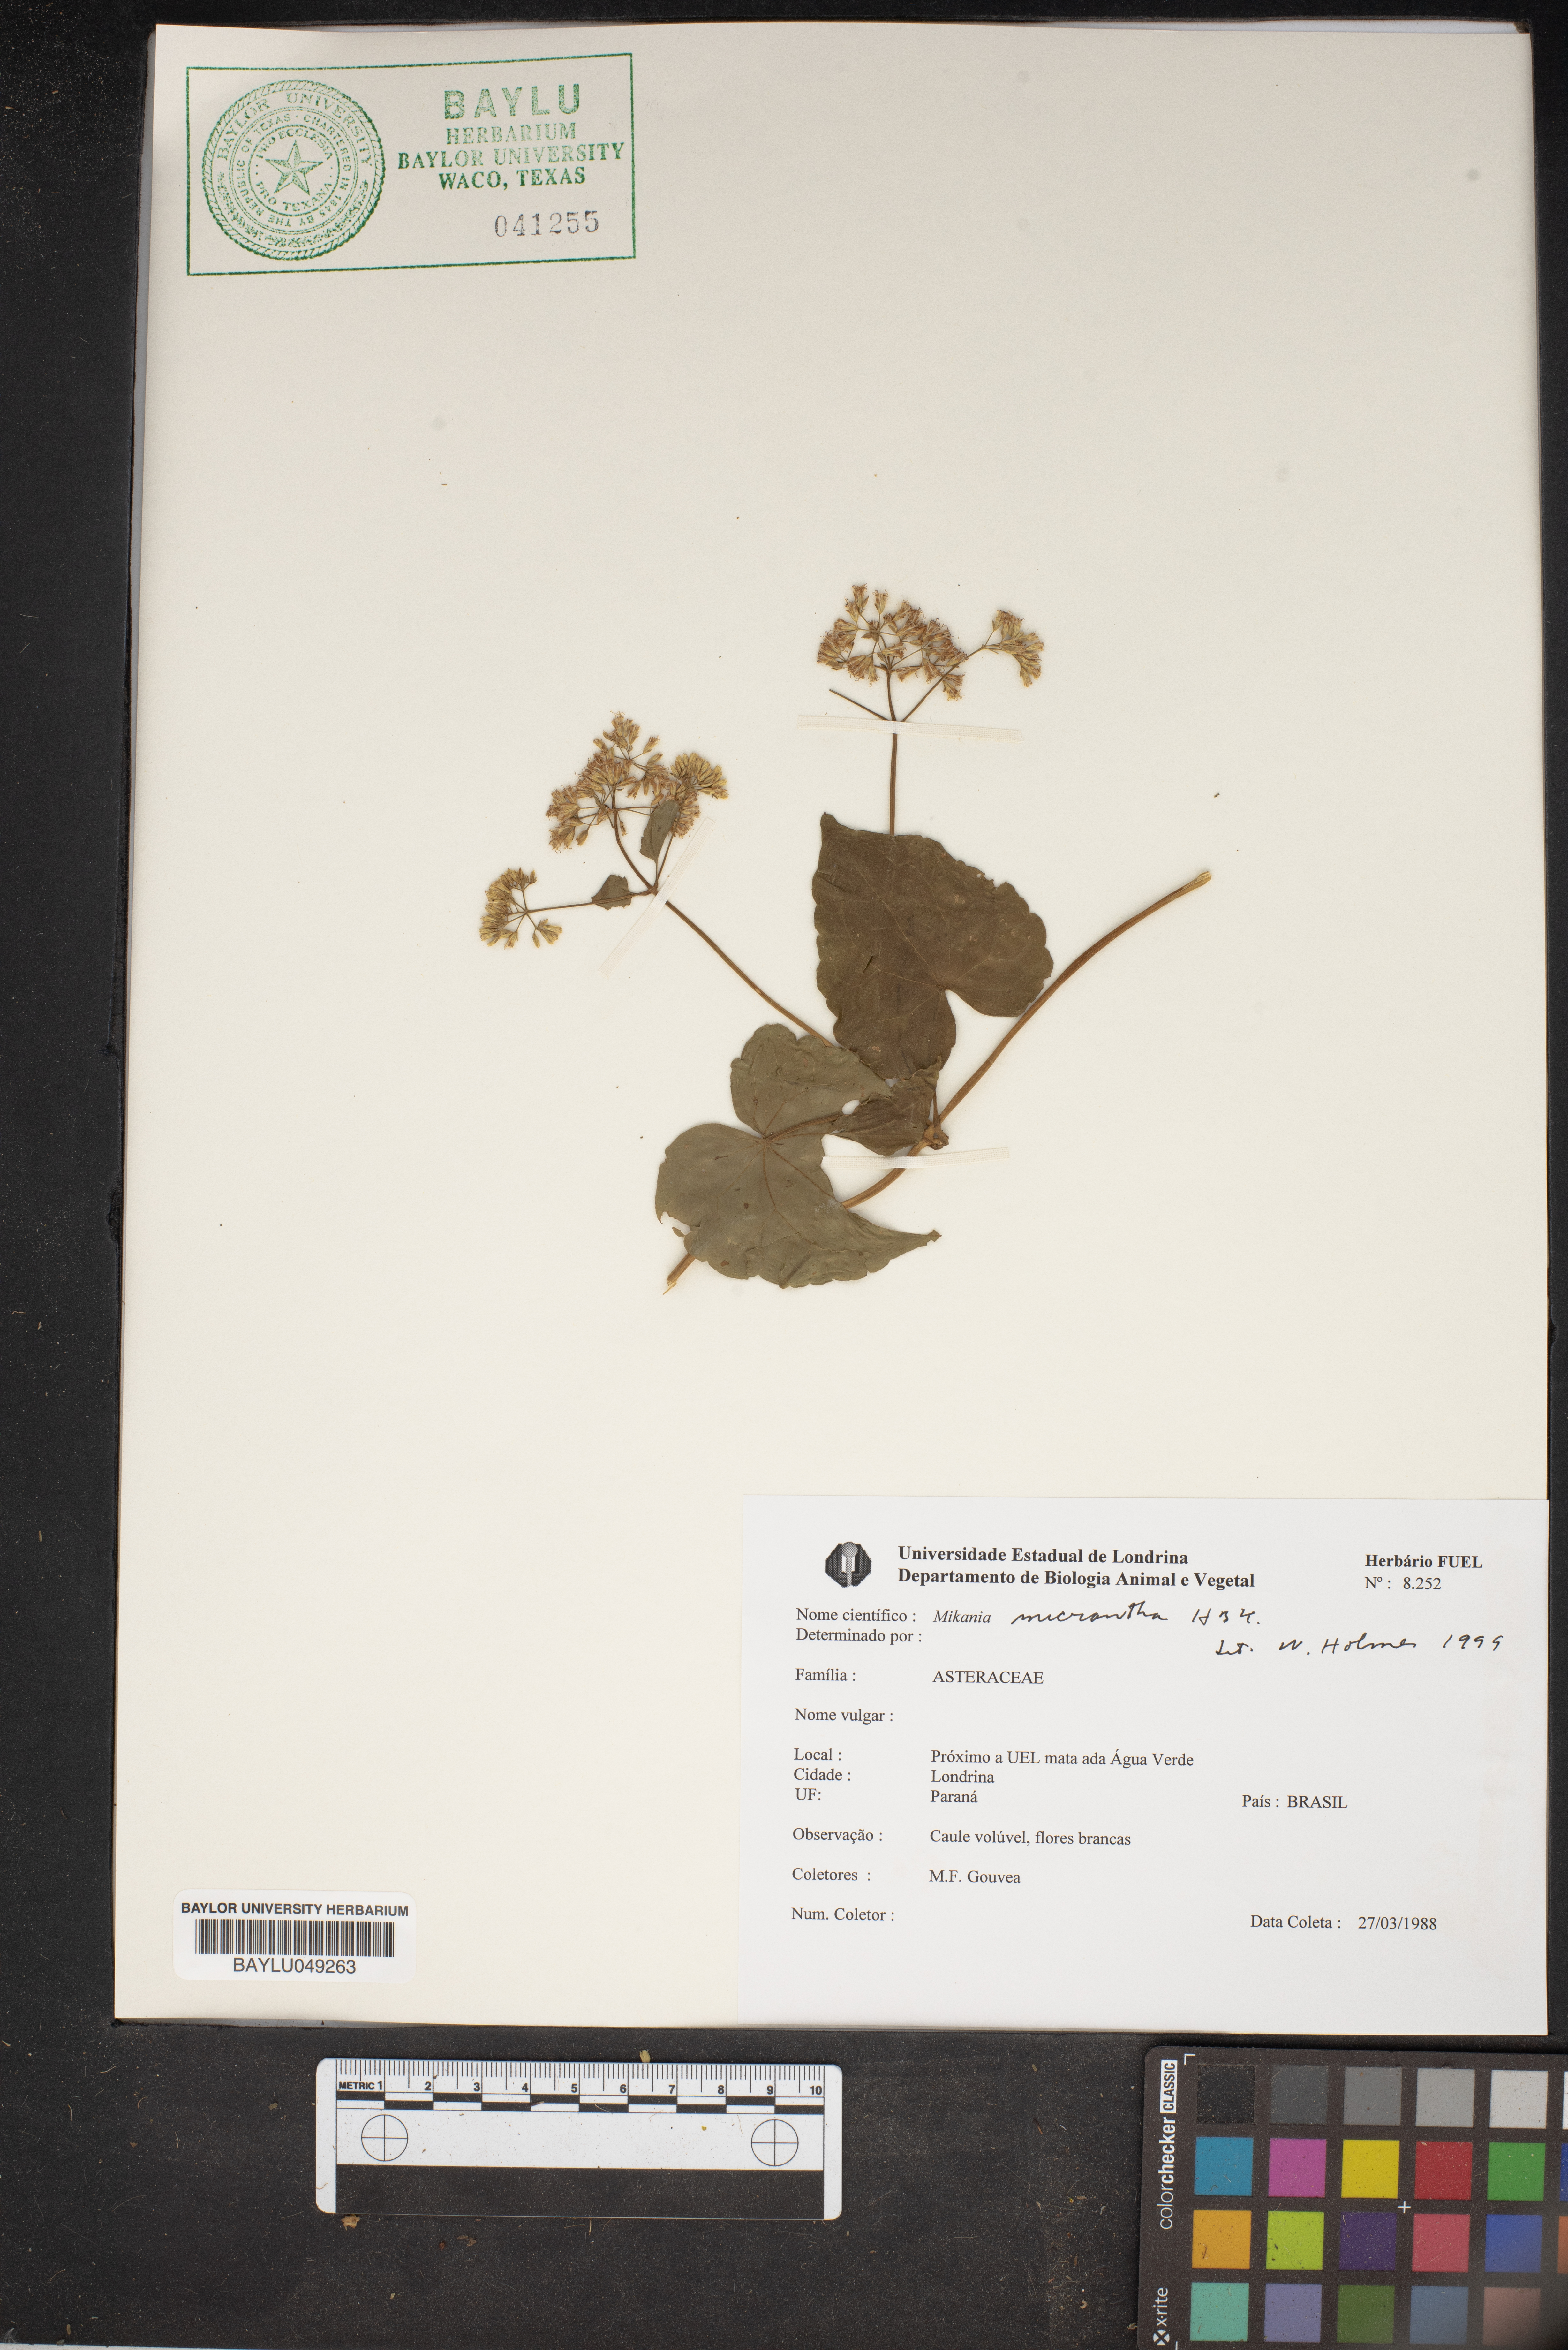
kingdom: Plantae
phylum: Tracheophyta
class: Magnoliopsida
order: Asterales
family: Asteraceae
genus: Mikania
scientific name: Mikania micrantha
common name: Mile-a-minute
